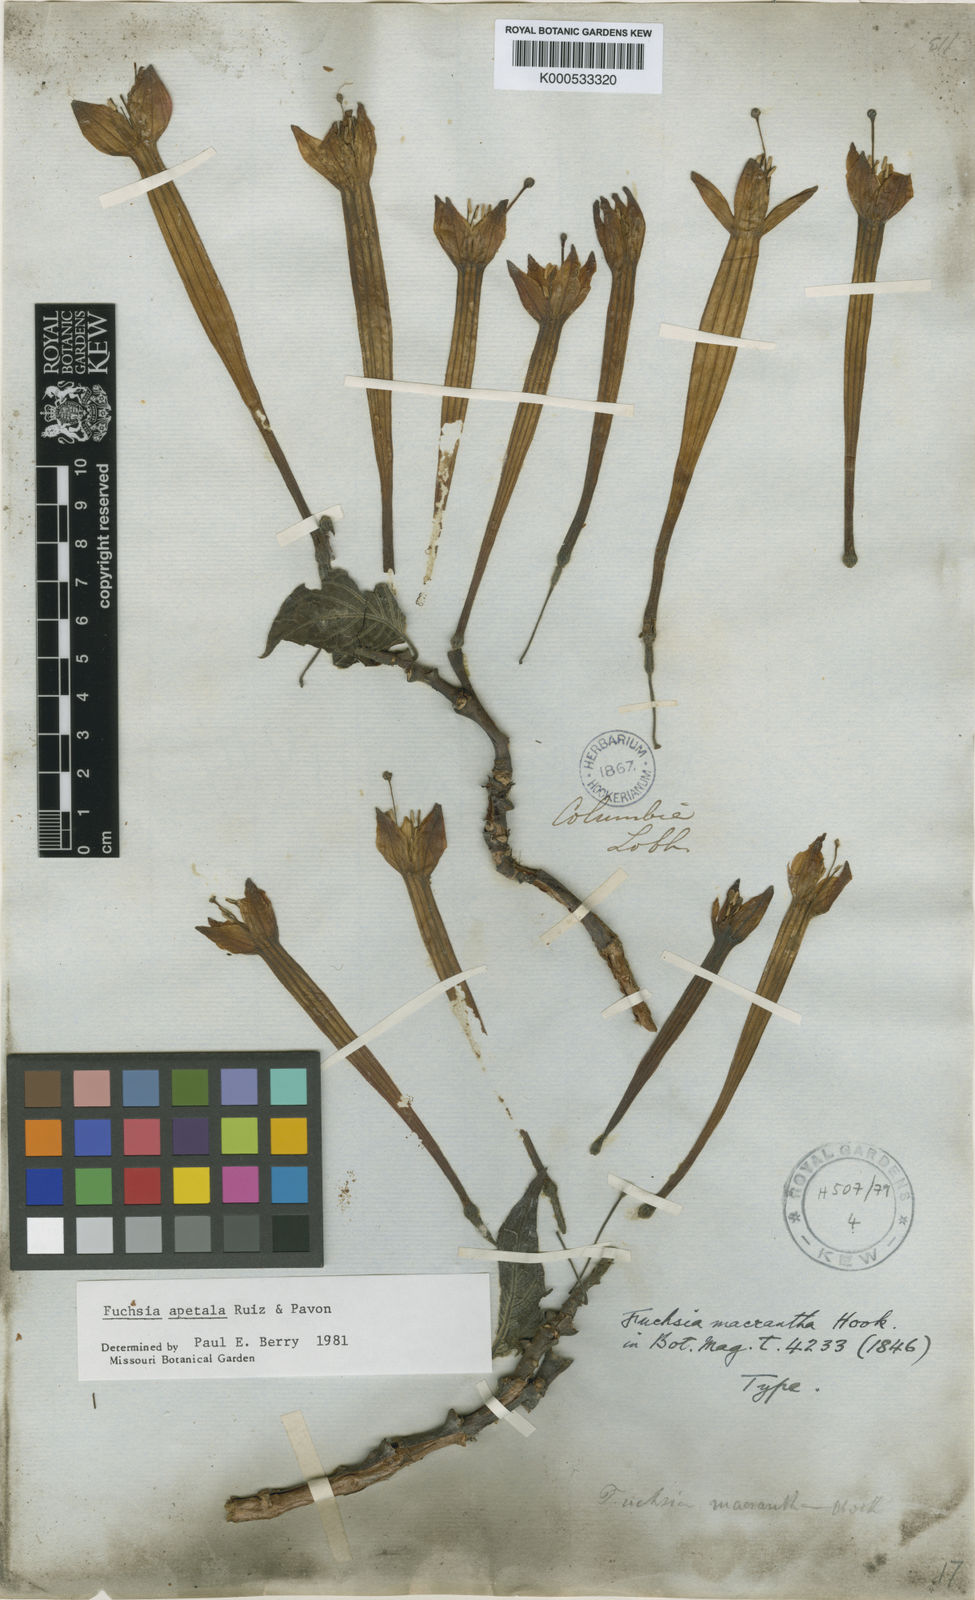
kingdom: Plantae
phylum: Tracheophyta
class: Magnoliopsida
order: Myrtales
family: Onagraceae
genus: Fuchsia
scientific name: Fuchsia apetala
